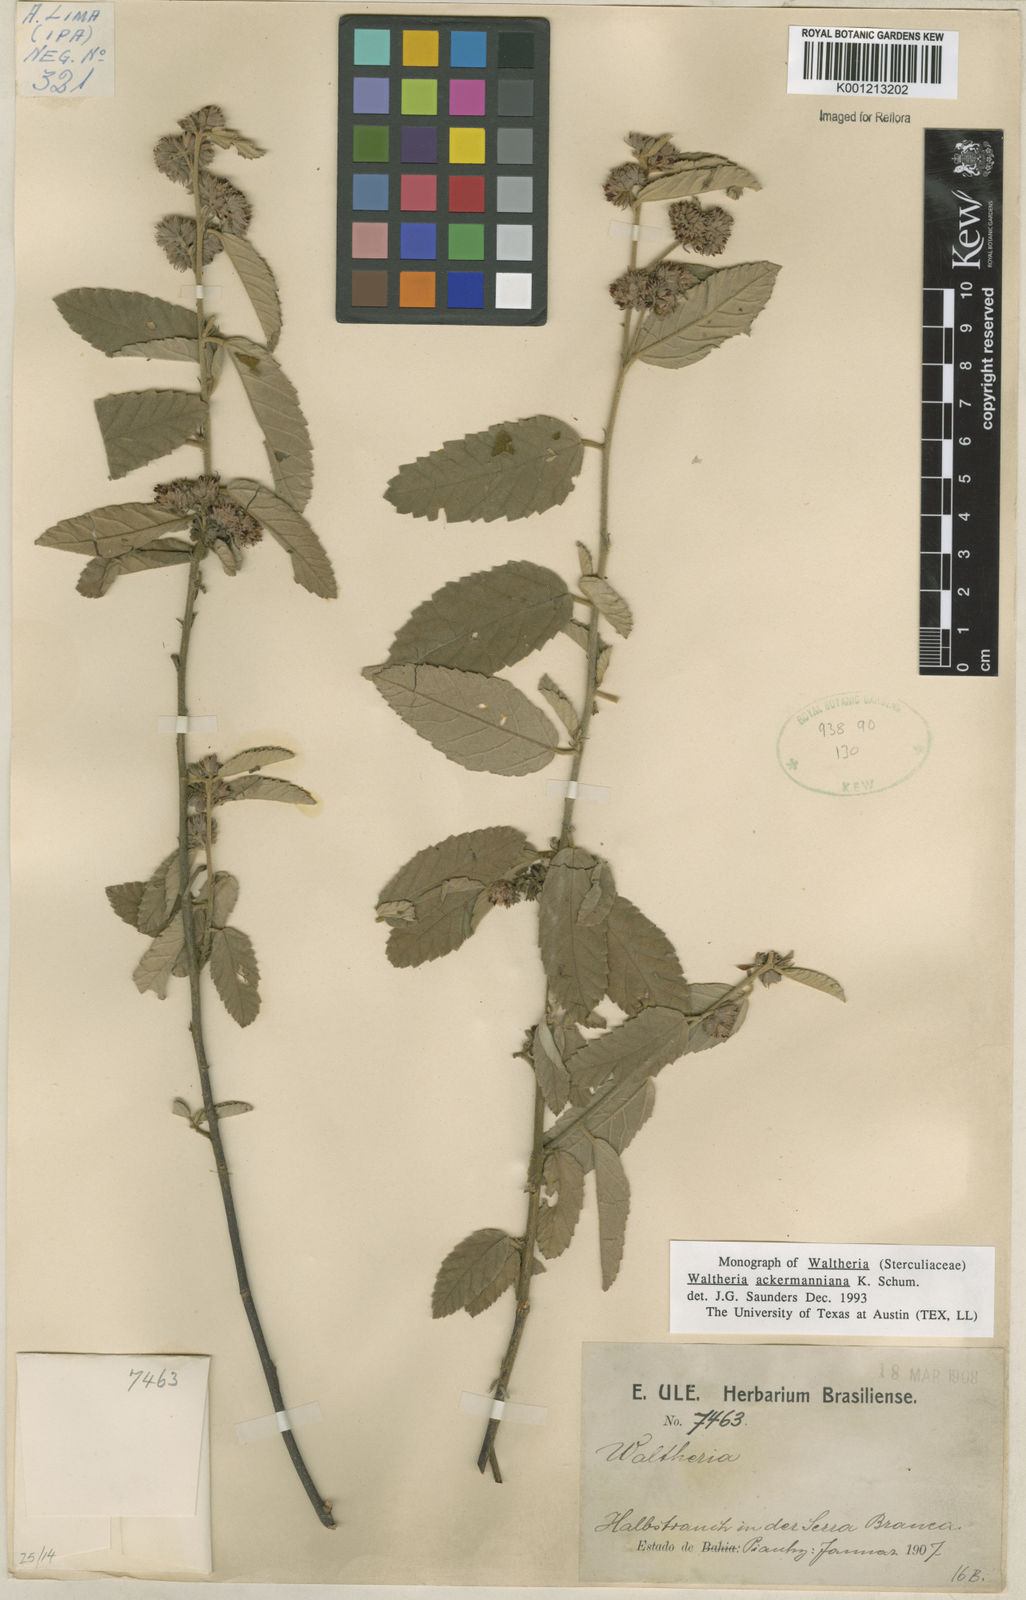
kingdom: Plantae
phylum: Tracheophyta
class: Magnoliopsida
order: Malvales
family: Malvaceae
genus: Waltheria
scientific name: Waltheria ackermanniana
